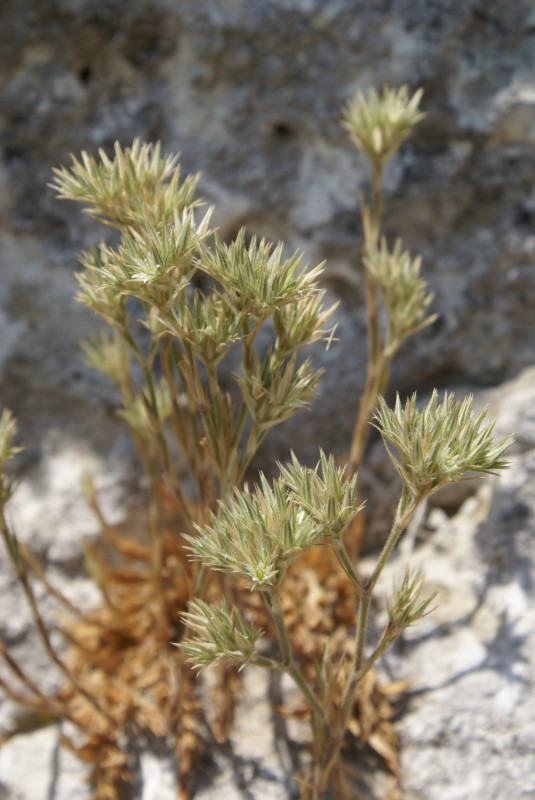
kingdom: Plantae
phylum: Tracheophyta
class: Magnoliopsida
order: Caryophyllales
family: Caryophyllaceae
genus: Minuartia
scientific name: Minuartia
